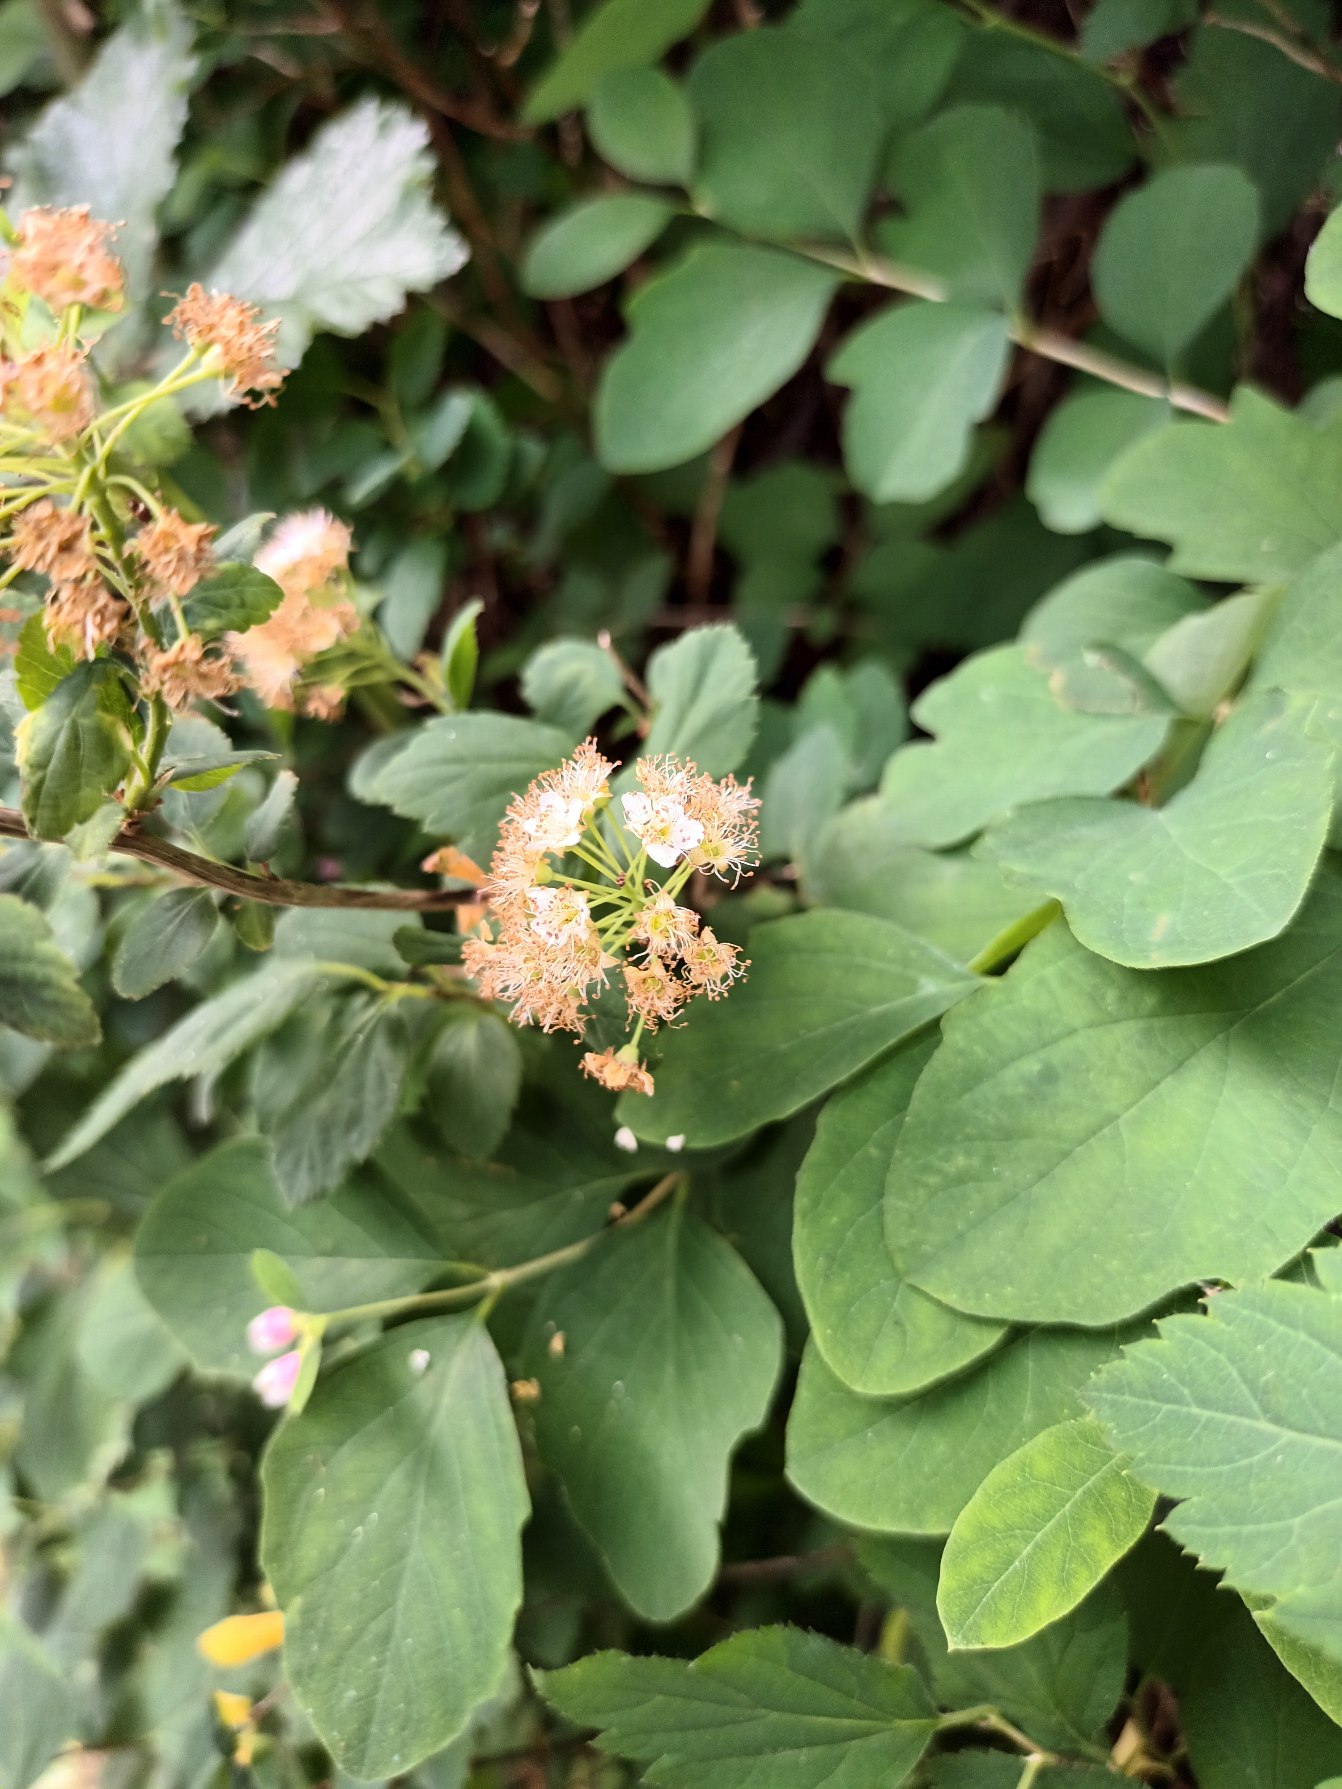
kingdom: Plantae
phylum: Tracheophyta
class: Magnoliopsida
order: Rosales
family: Rosaceae
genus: Spiraea
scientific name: Spiraea vanhouttei
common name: Buket-spiræa
